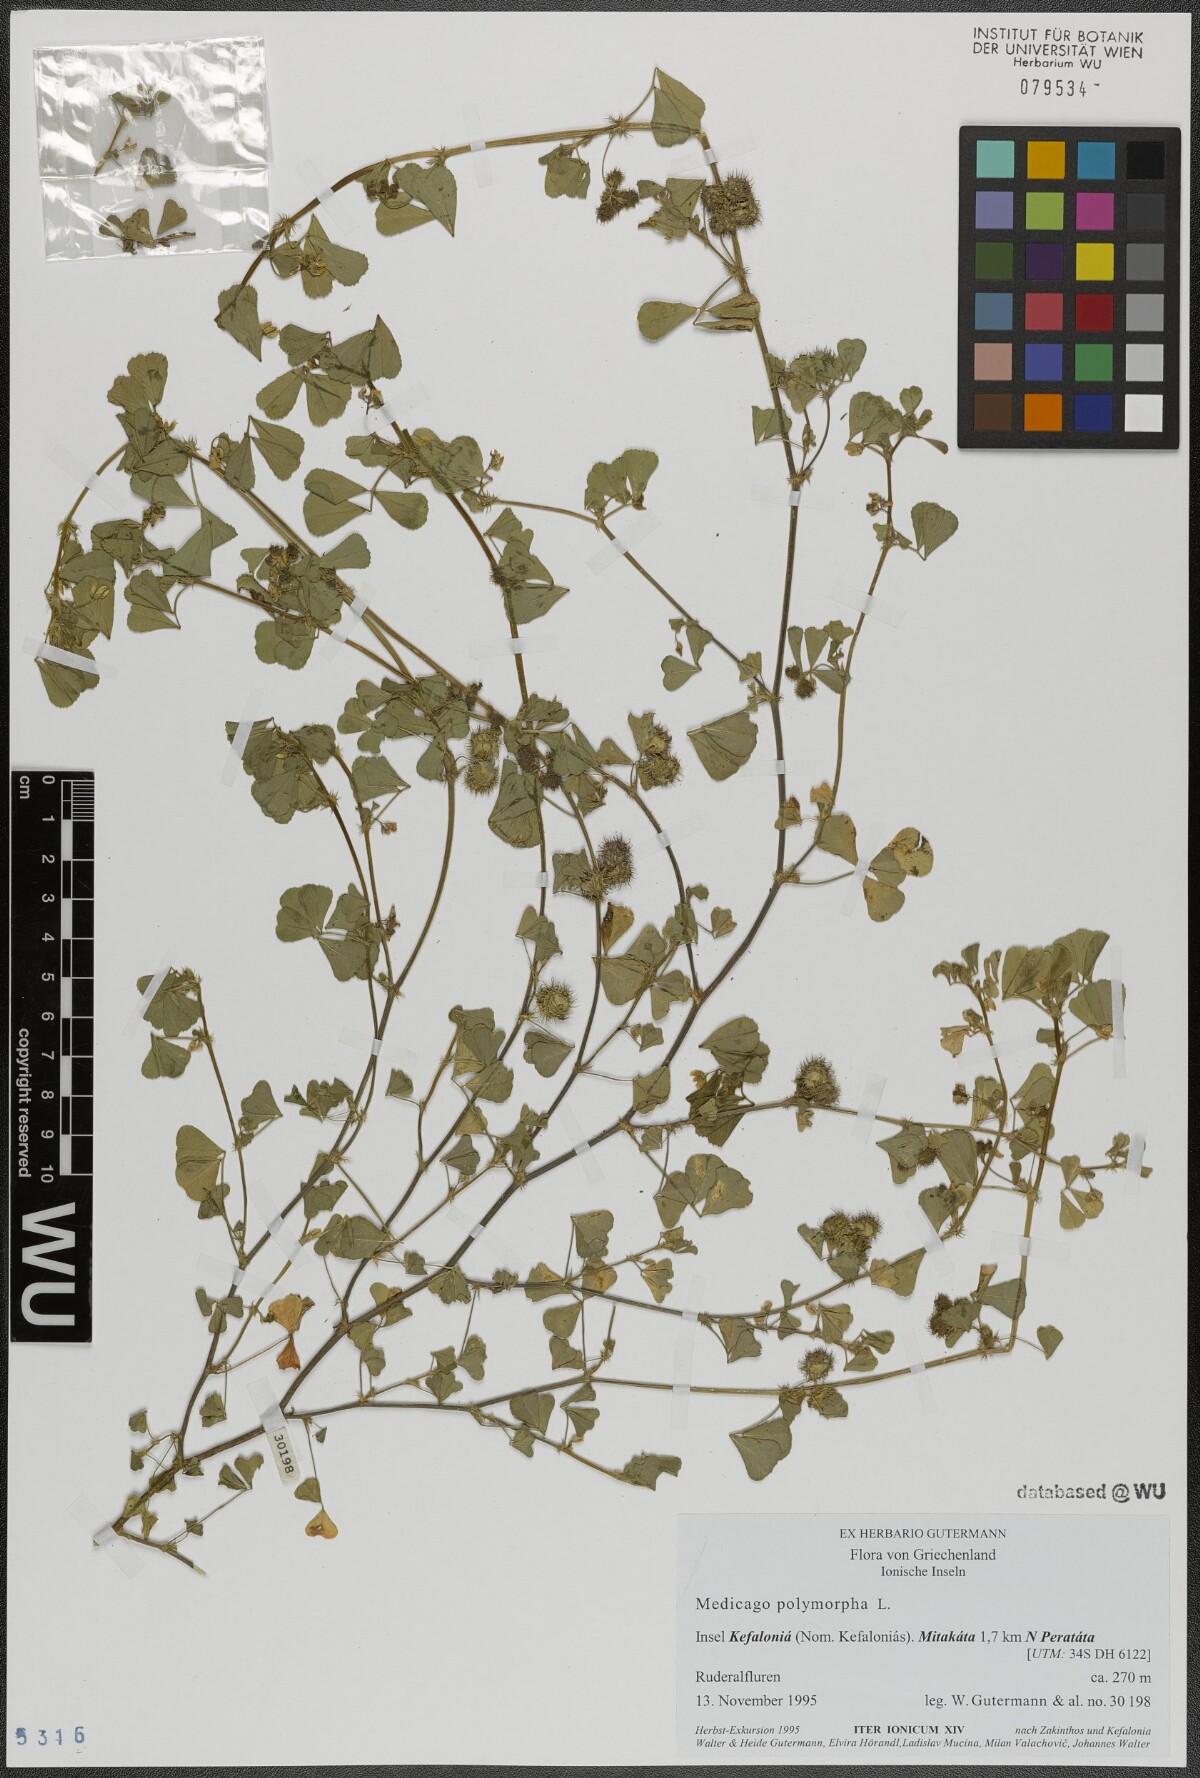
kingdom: Plantae
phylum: Tracheophyta
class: Magnoliopsida
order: Fabales
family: Fabaceae
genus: Medicago
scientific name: Medicago polymorpha
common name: Burclover
